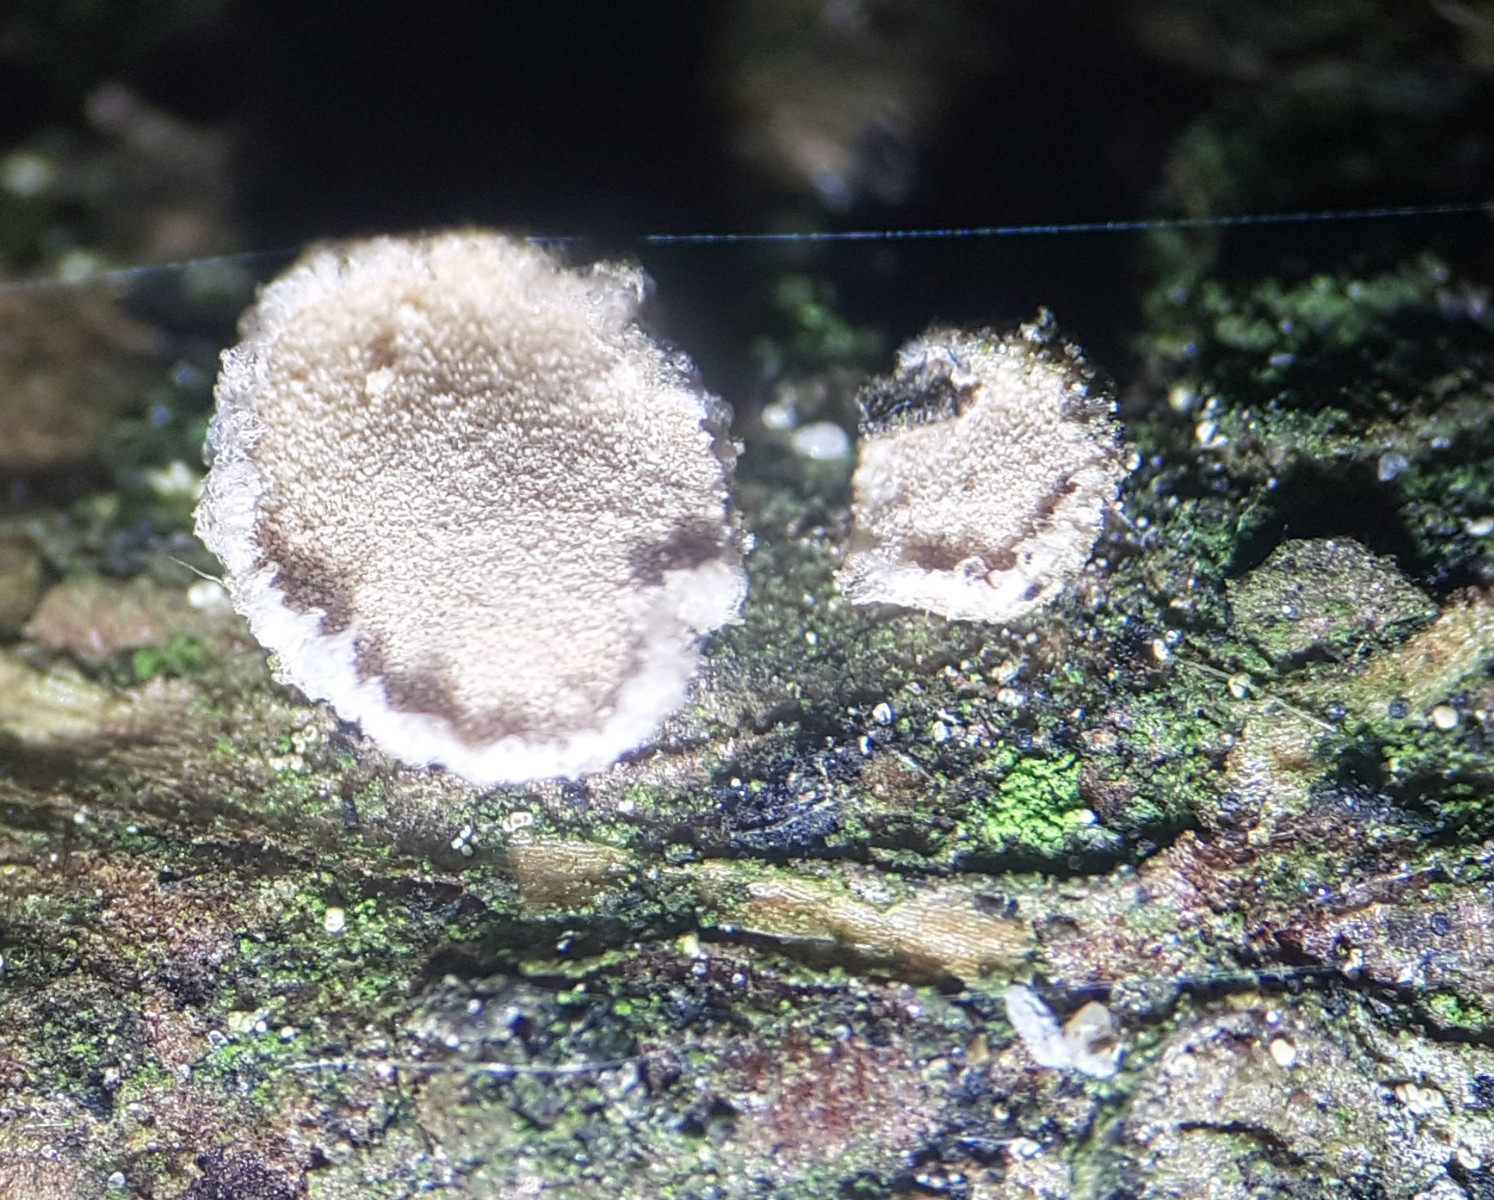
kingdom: Fungi
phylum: Basidiomycota
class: Agaricomycetes
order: Russulales
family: Stereaceae
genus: Aleurodiscus
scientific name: Aleurodiscus amorphus
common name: orange skiveskorpe
